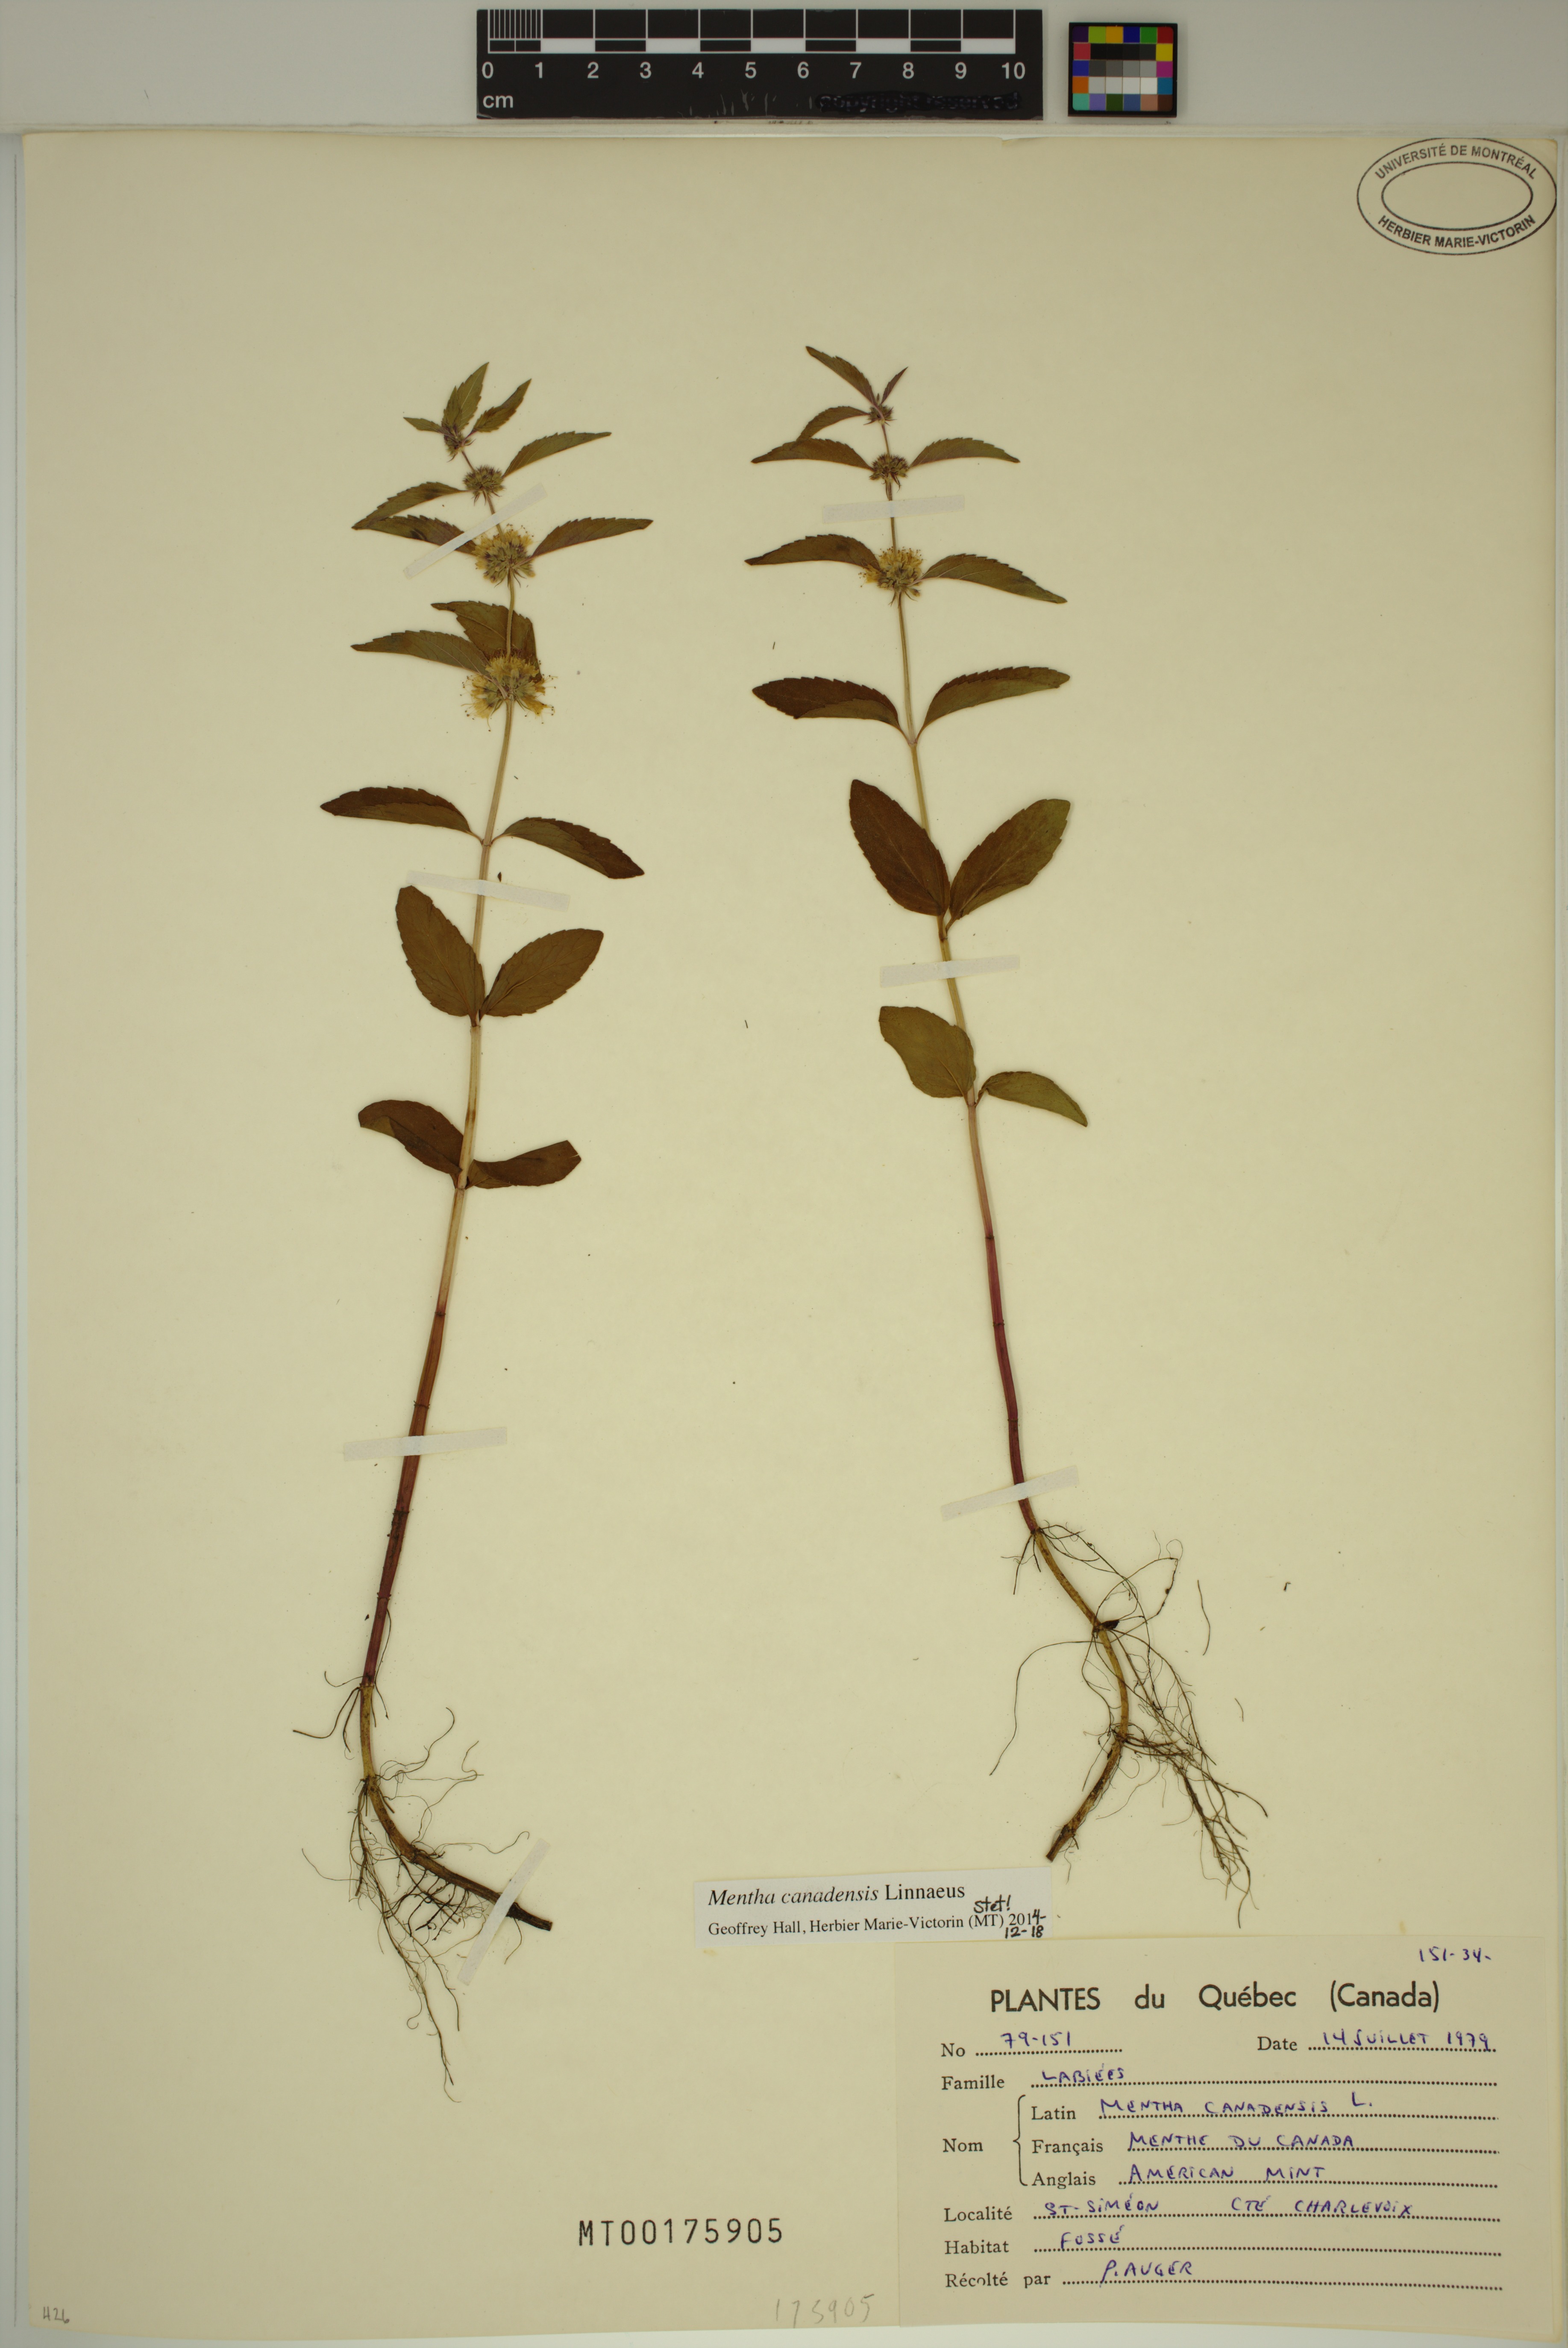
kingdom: Plantae
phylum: Tracheophyta
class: Magnoliopsida
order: Lamiales
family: Lamiaceae
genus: Mentha
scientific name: Mentha canadensis
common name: American corn mint
